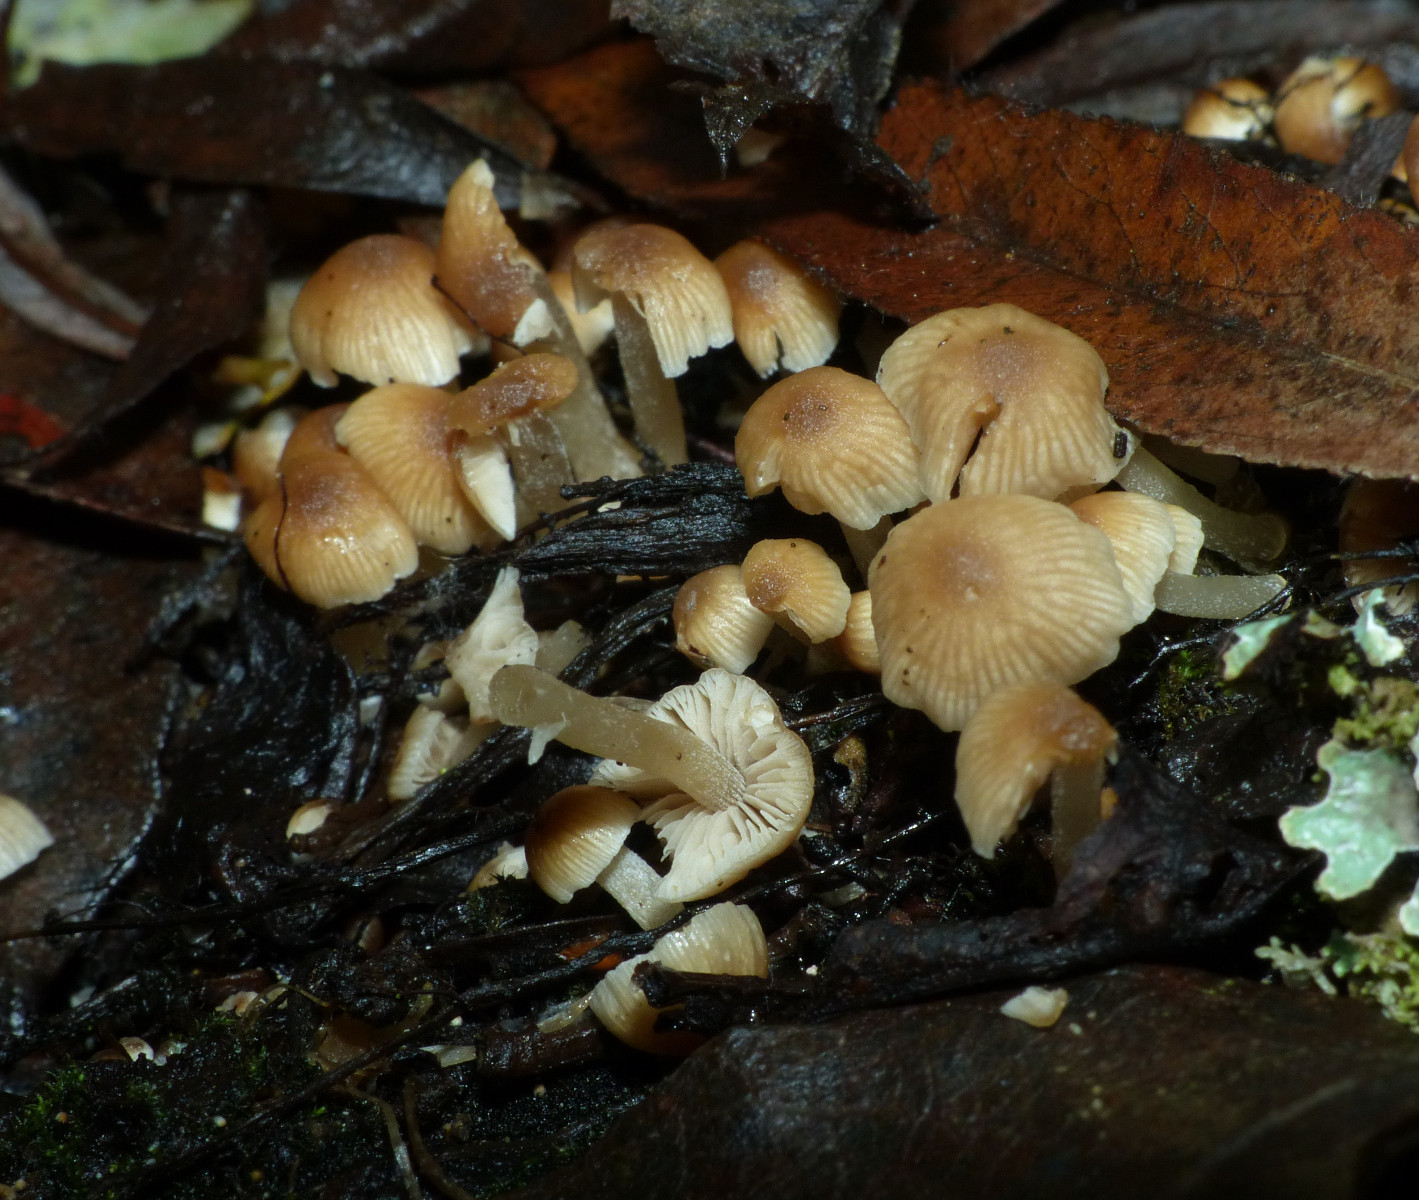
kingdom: Fungi
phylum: Basidiomycota
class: Agaricomycetes
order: Agaricales
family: Psathyrellaceae
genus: Psathyrella
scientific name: Psathyrella pygmaea
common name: dværg-mørkhat
